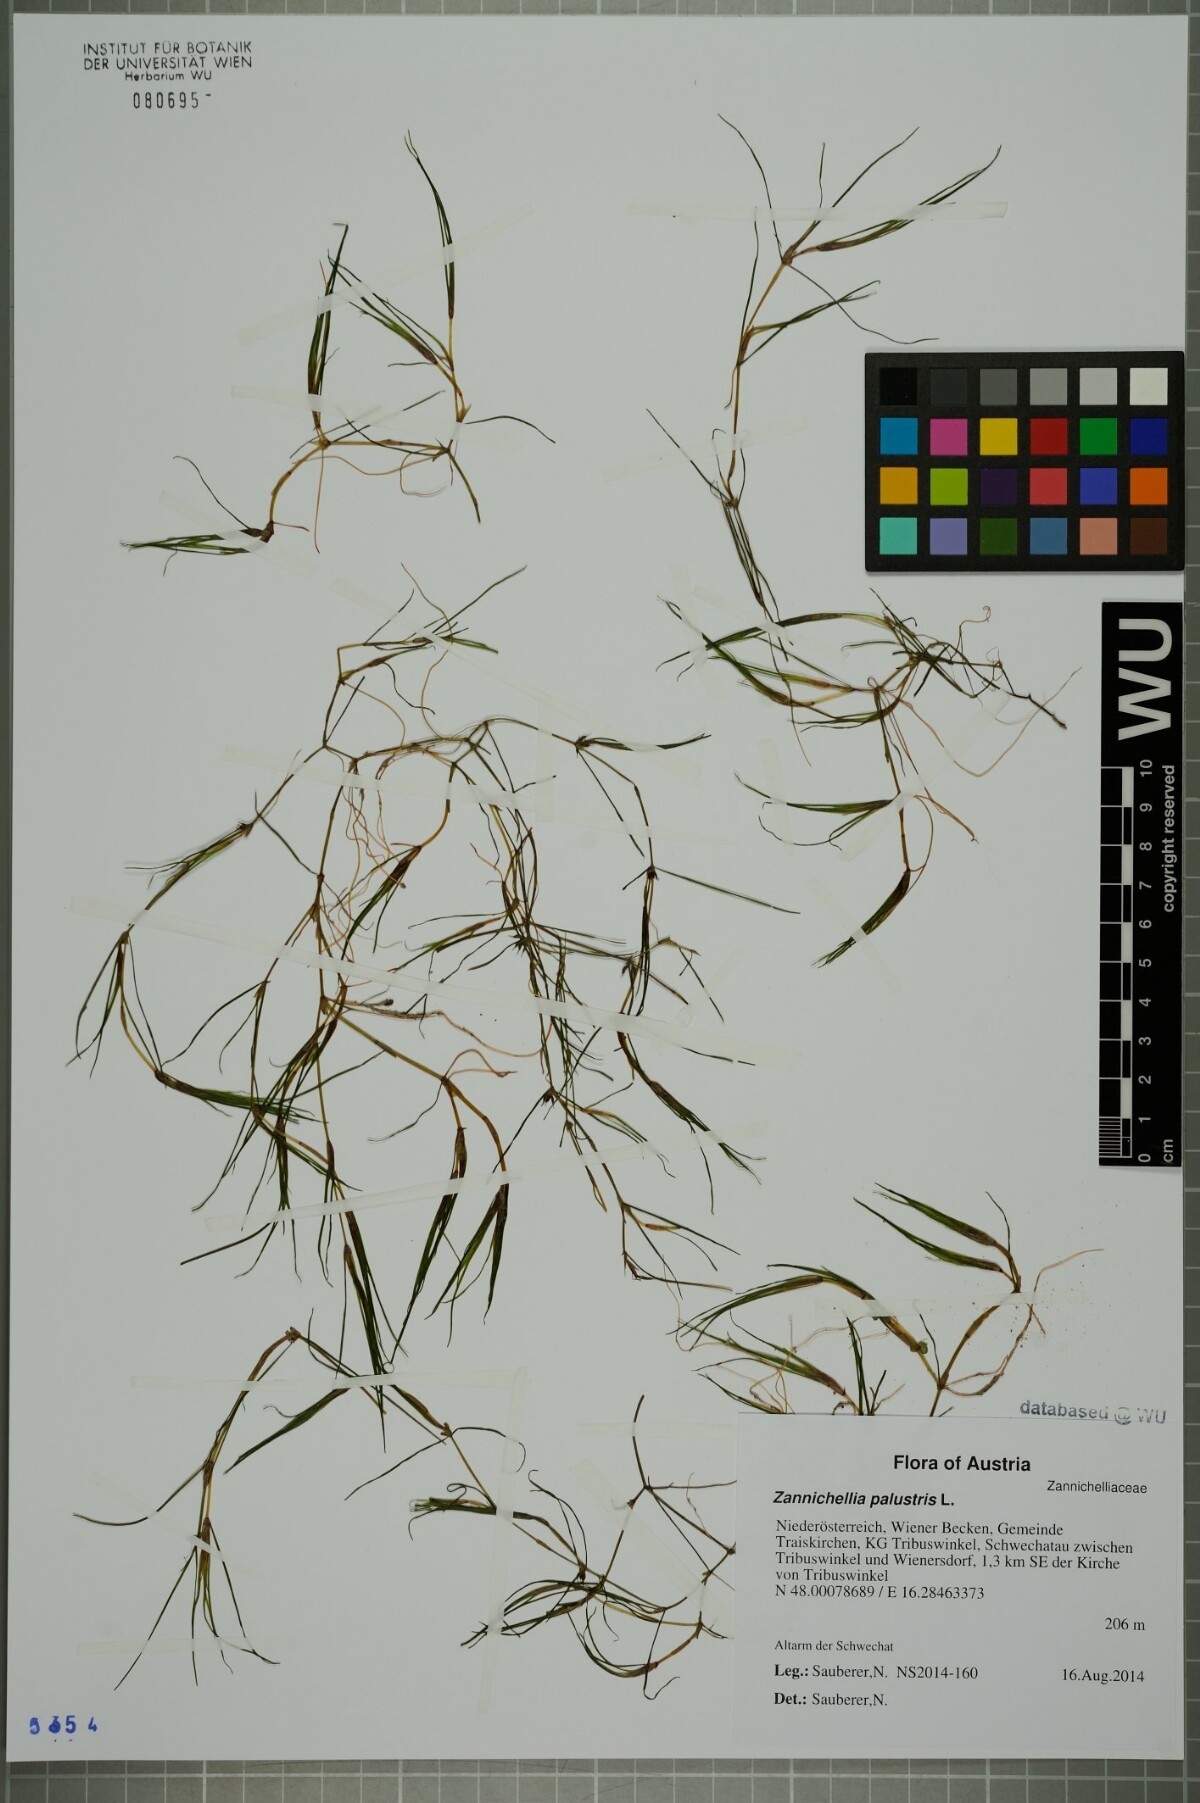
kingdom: Plantae
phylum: Tracheophyta
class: Liliopsida
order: Alismatales
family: Potamogetonaceae
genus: Zannichellia
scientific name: Zannichellia palustris
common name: Horned pondweed
